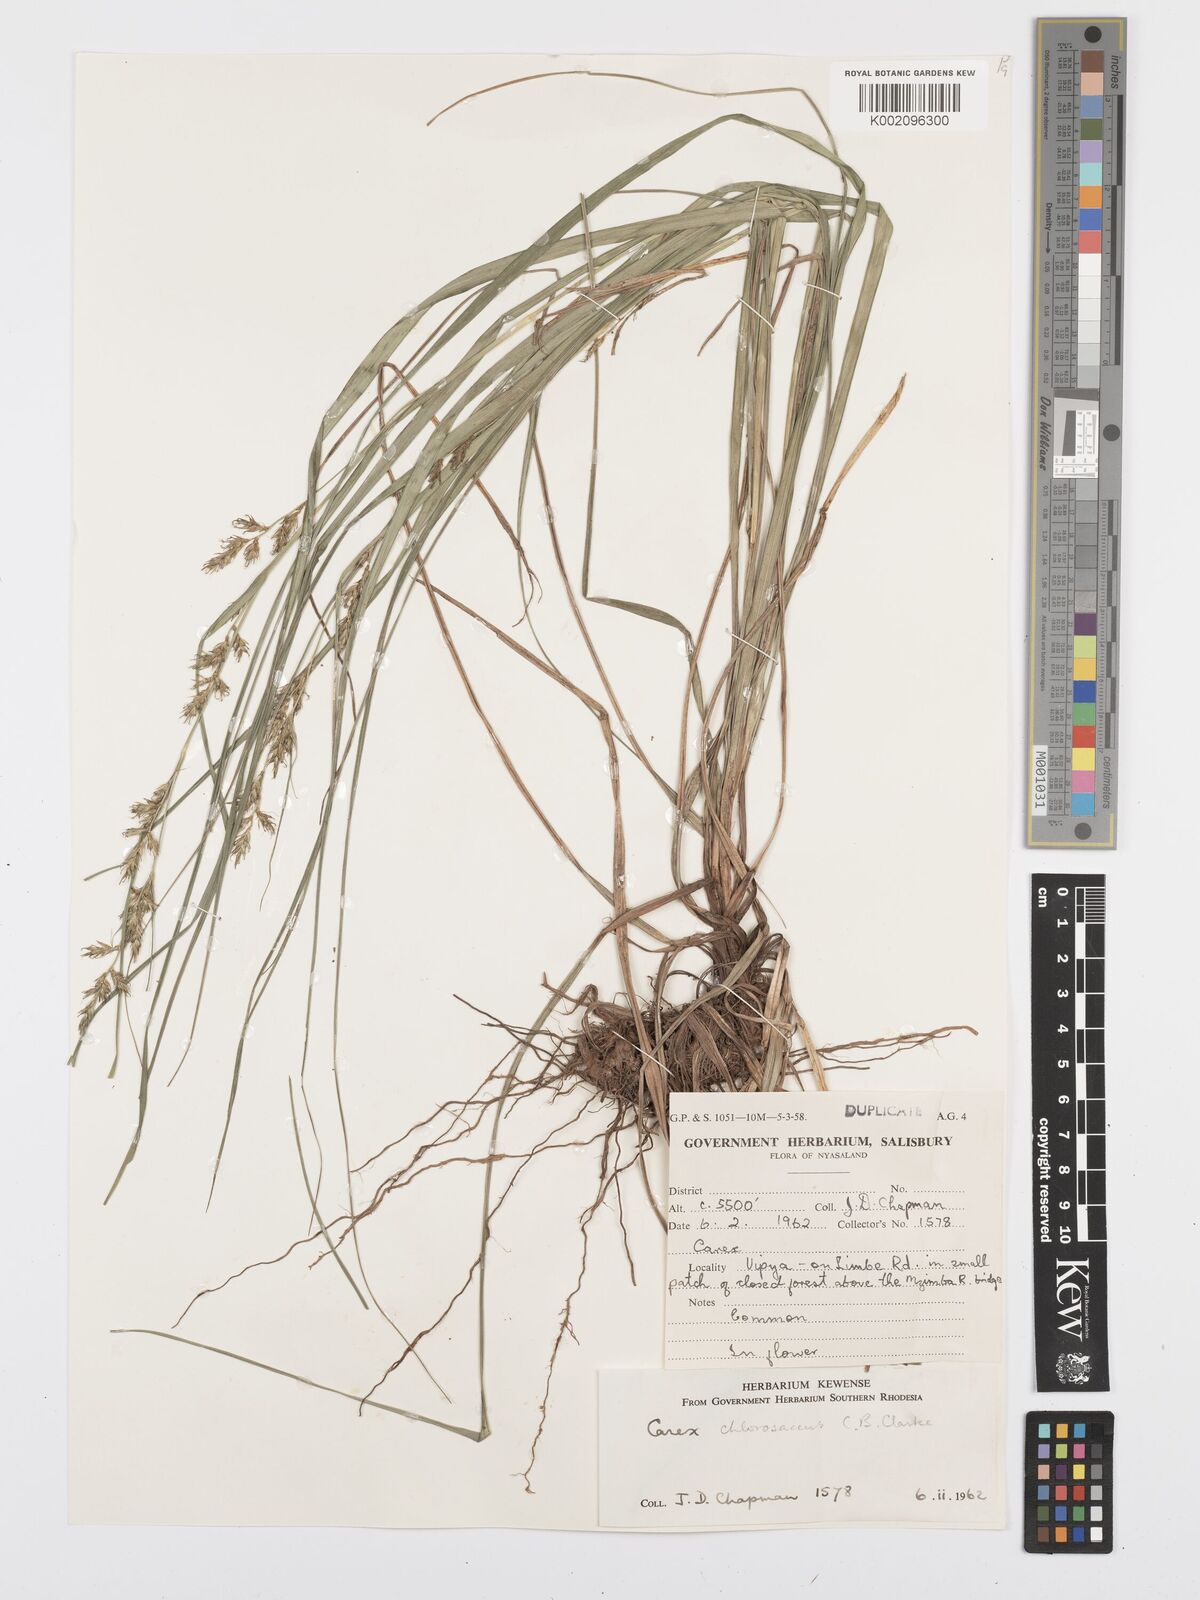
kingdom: Plantae
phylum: Tracheophyta
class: Liliopsida
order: Poales
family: Cyperaceae
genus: Carex
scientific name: Carex chlorosaccus
